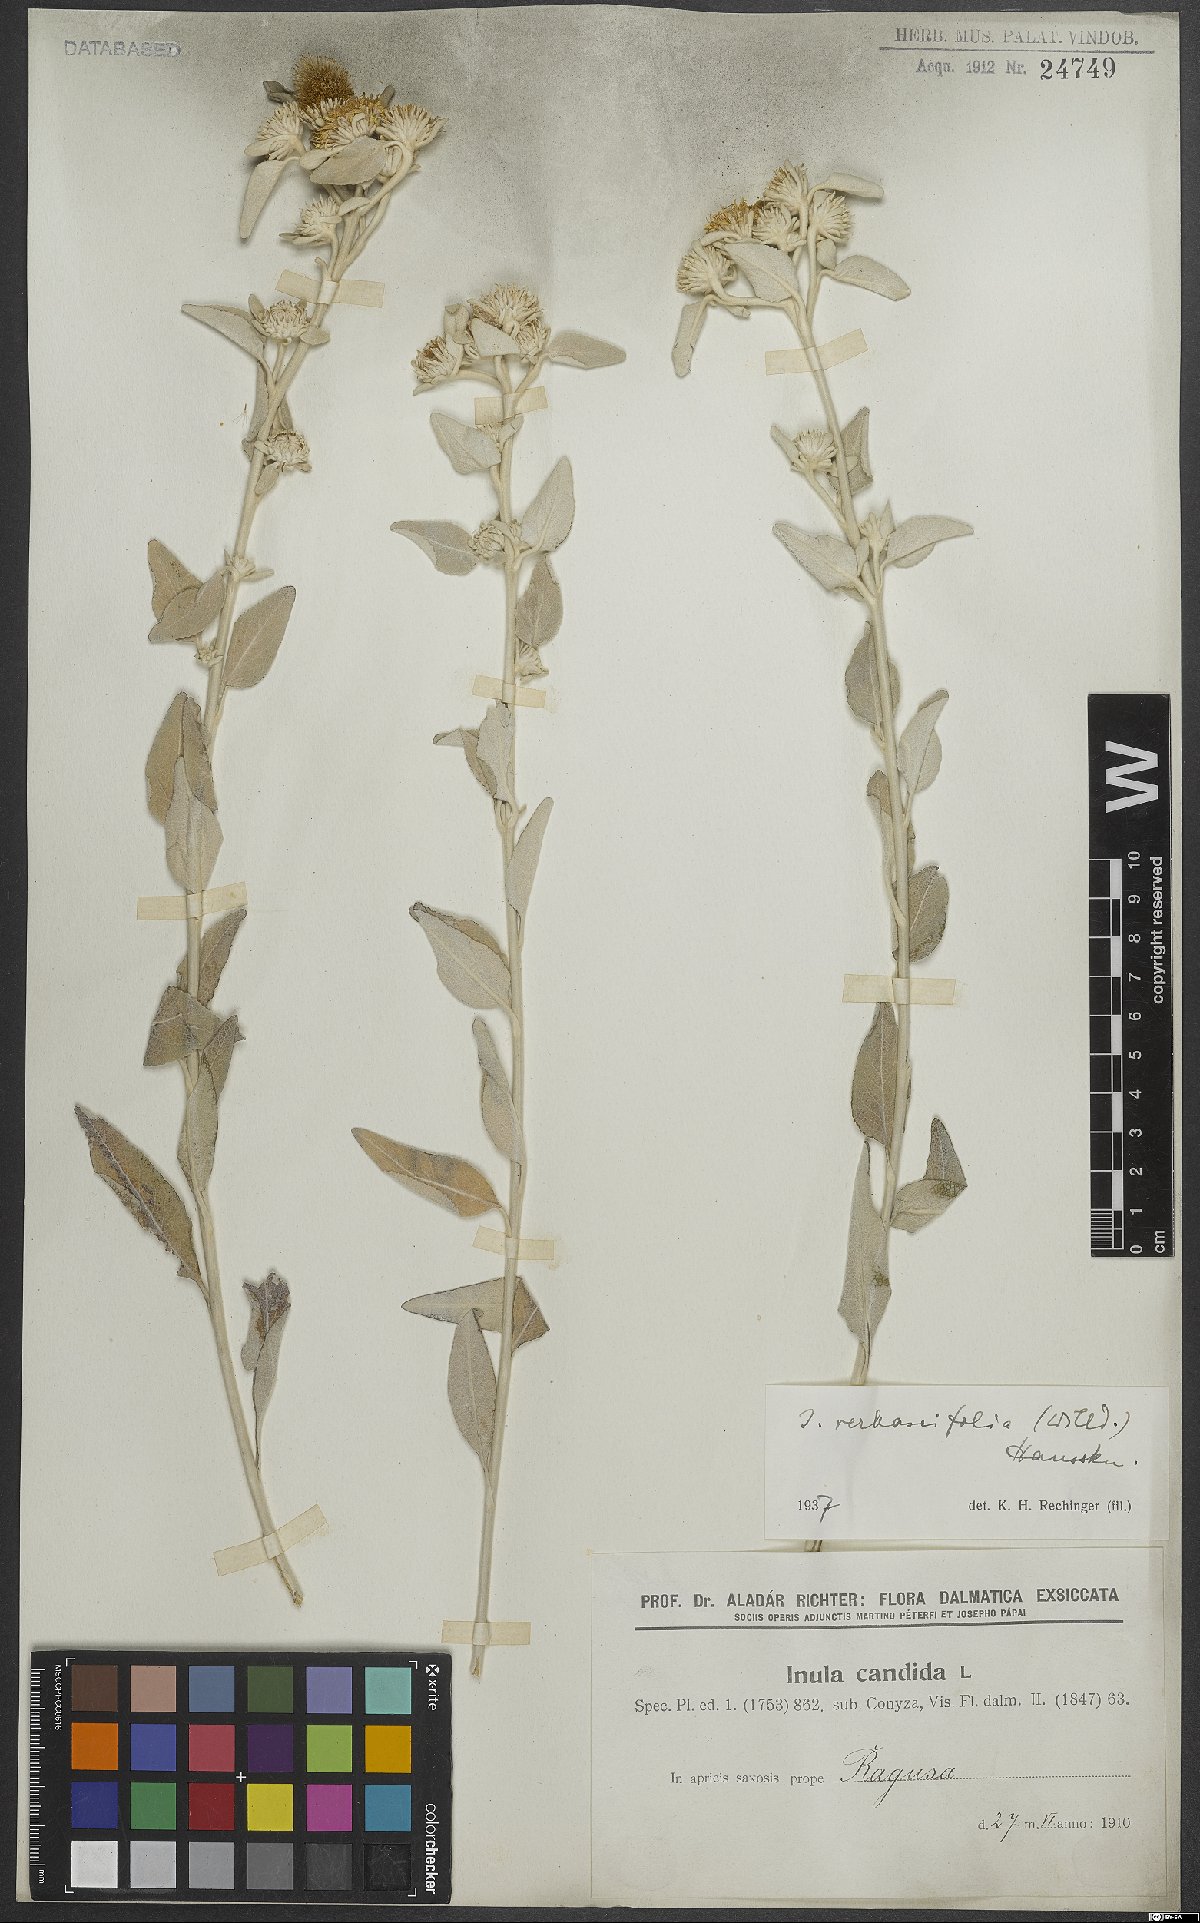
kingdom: Plantae
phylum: Tracheophyta
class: Magnoliopsida
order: Asterales
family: Asteraceae
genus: Pentanema
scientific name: Pentanema verbascifolium
